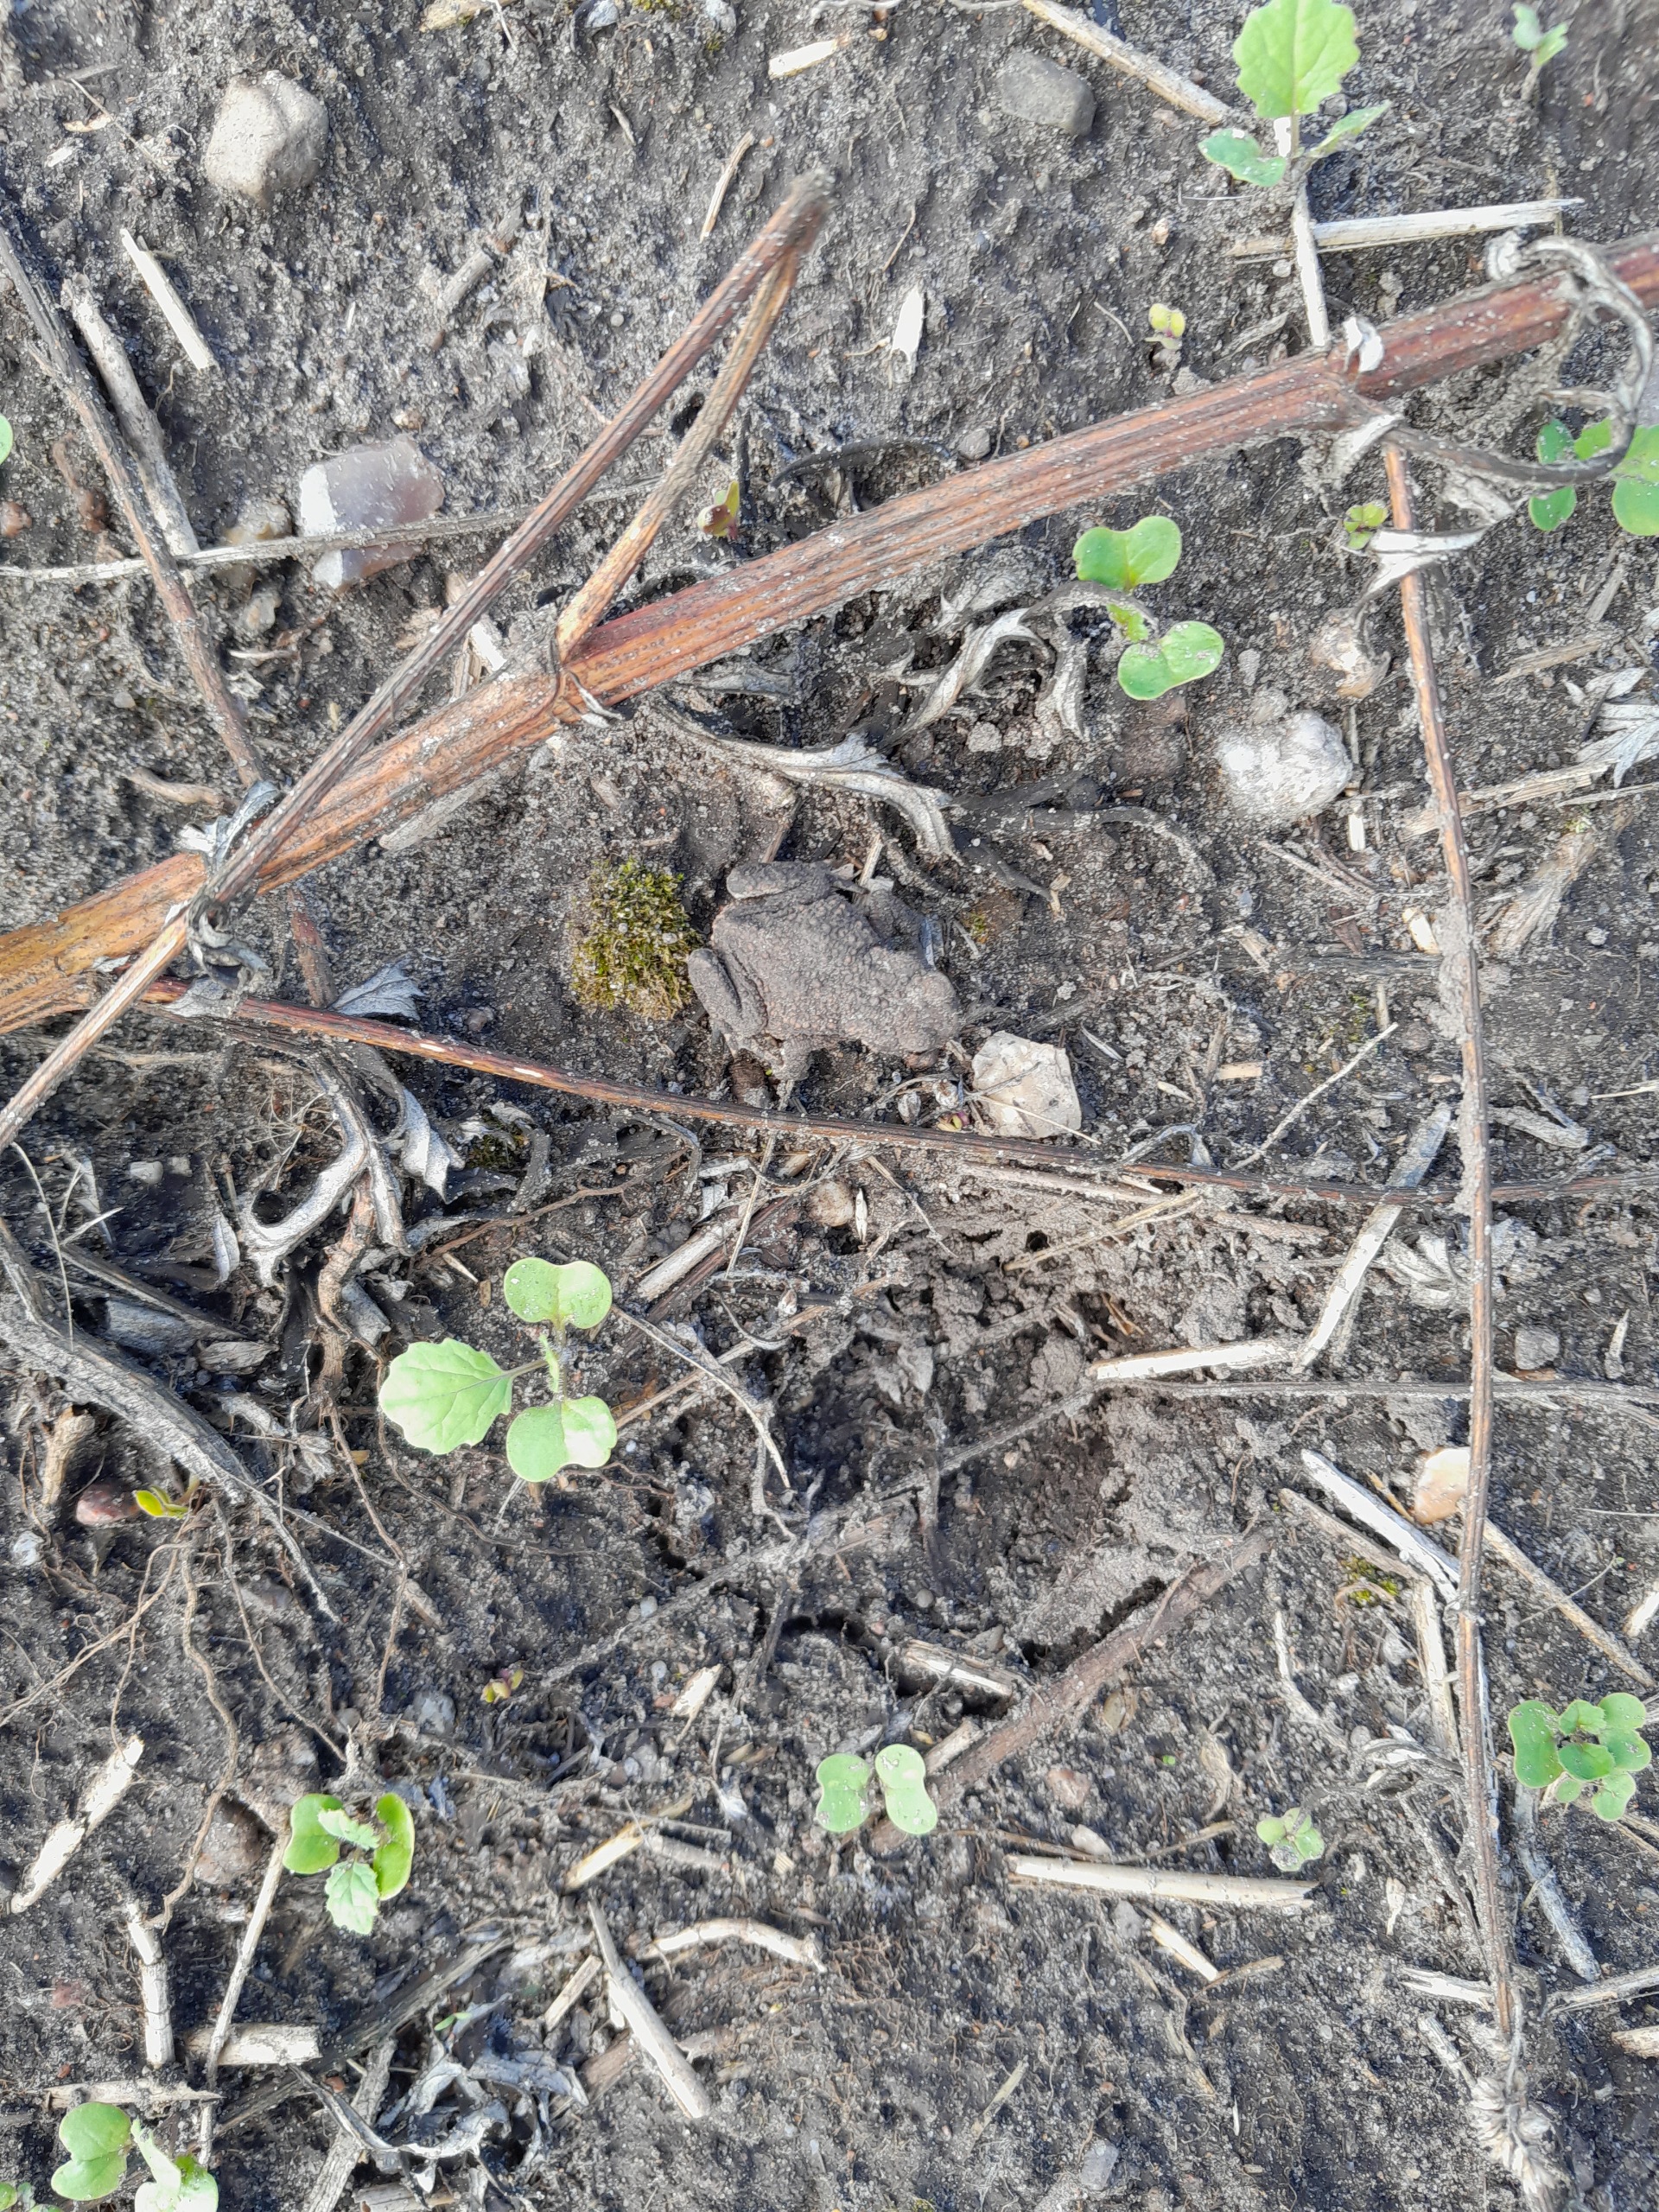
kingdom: Animalia
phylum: Chordata
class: Amphibia
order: Anura
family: Bufonidae
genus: Bufo
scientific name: Bufo bufo
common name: Skrubtudse
